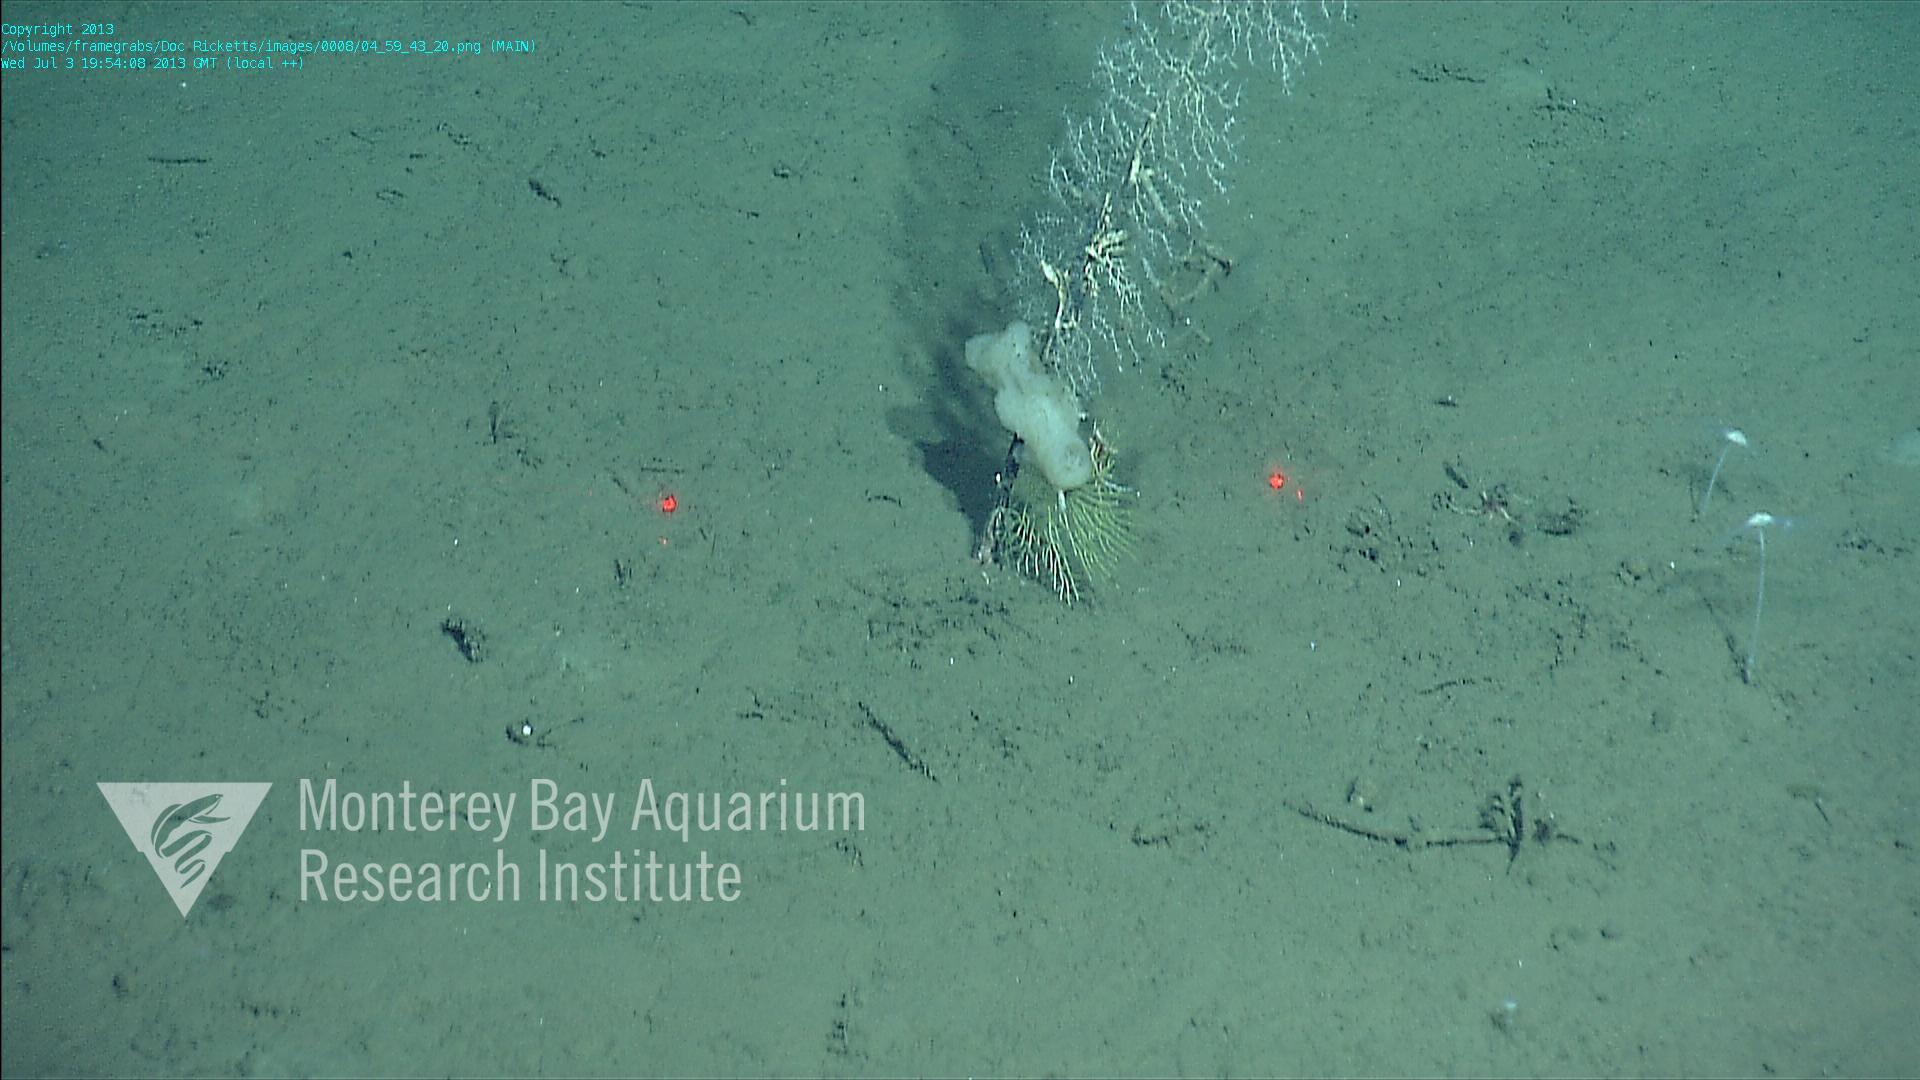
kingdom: Animalia
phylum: Porifera
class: Hexactinellida
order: Lyssacinosida
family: Rossellidae
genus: Bathydorus
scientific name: Bathydorus spinosus
